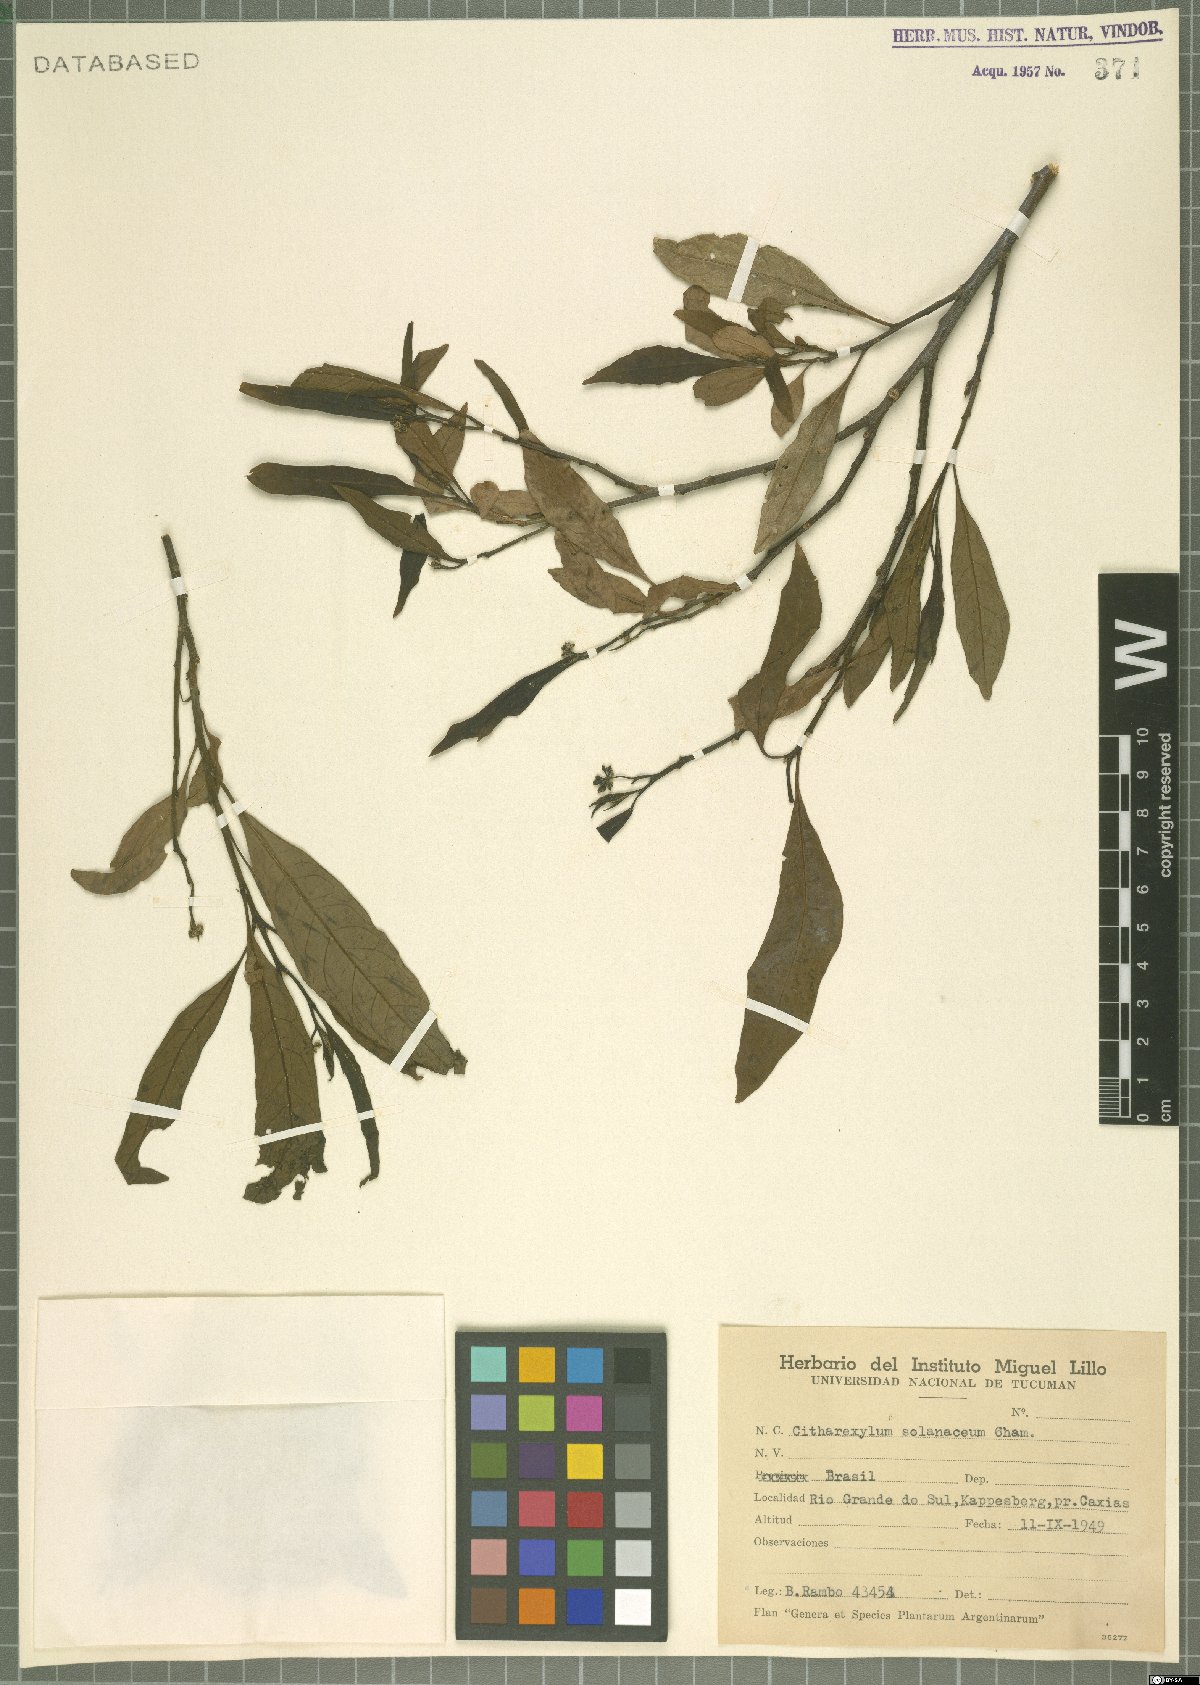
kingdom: Plantae
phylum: Tracheophyta
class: Magnoliopsida
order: Lamiales
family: Verbenaceae
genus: Citharexylum
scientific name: Citharexylum solanaceum
